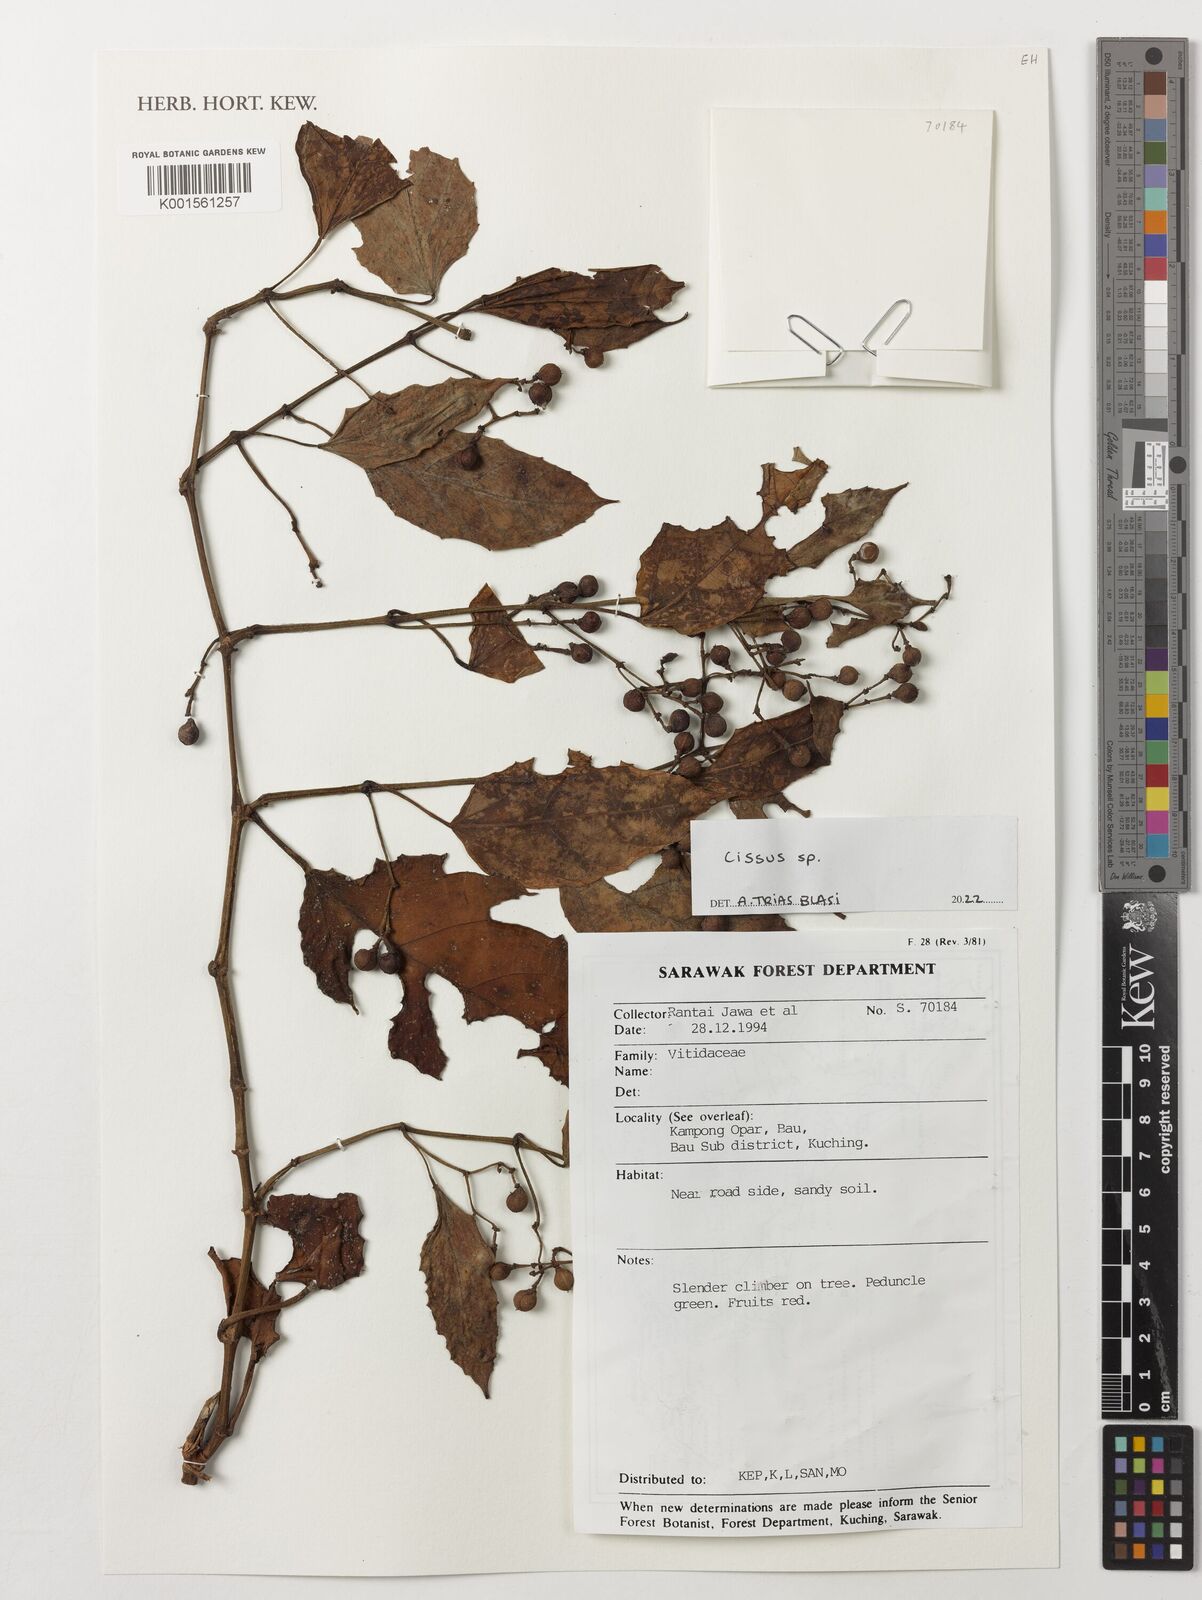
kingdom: Plantae
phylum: Tracheophyta
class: Magnoliopsida
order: Vitales
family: Vitaceae
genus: Cissus
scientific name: Cissus
